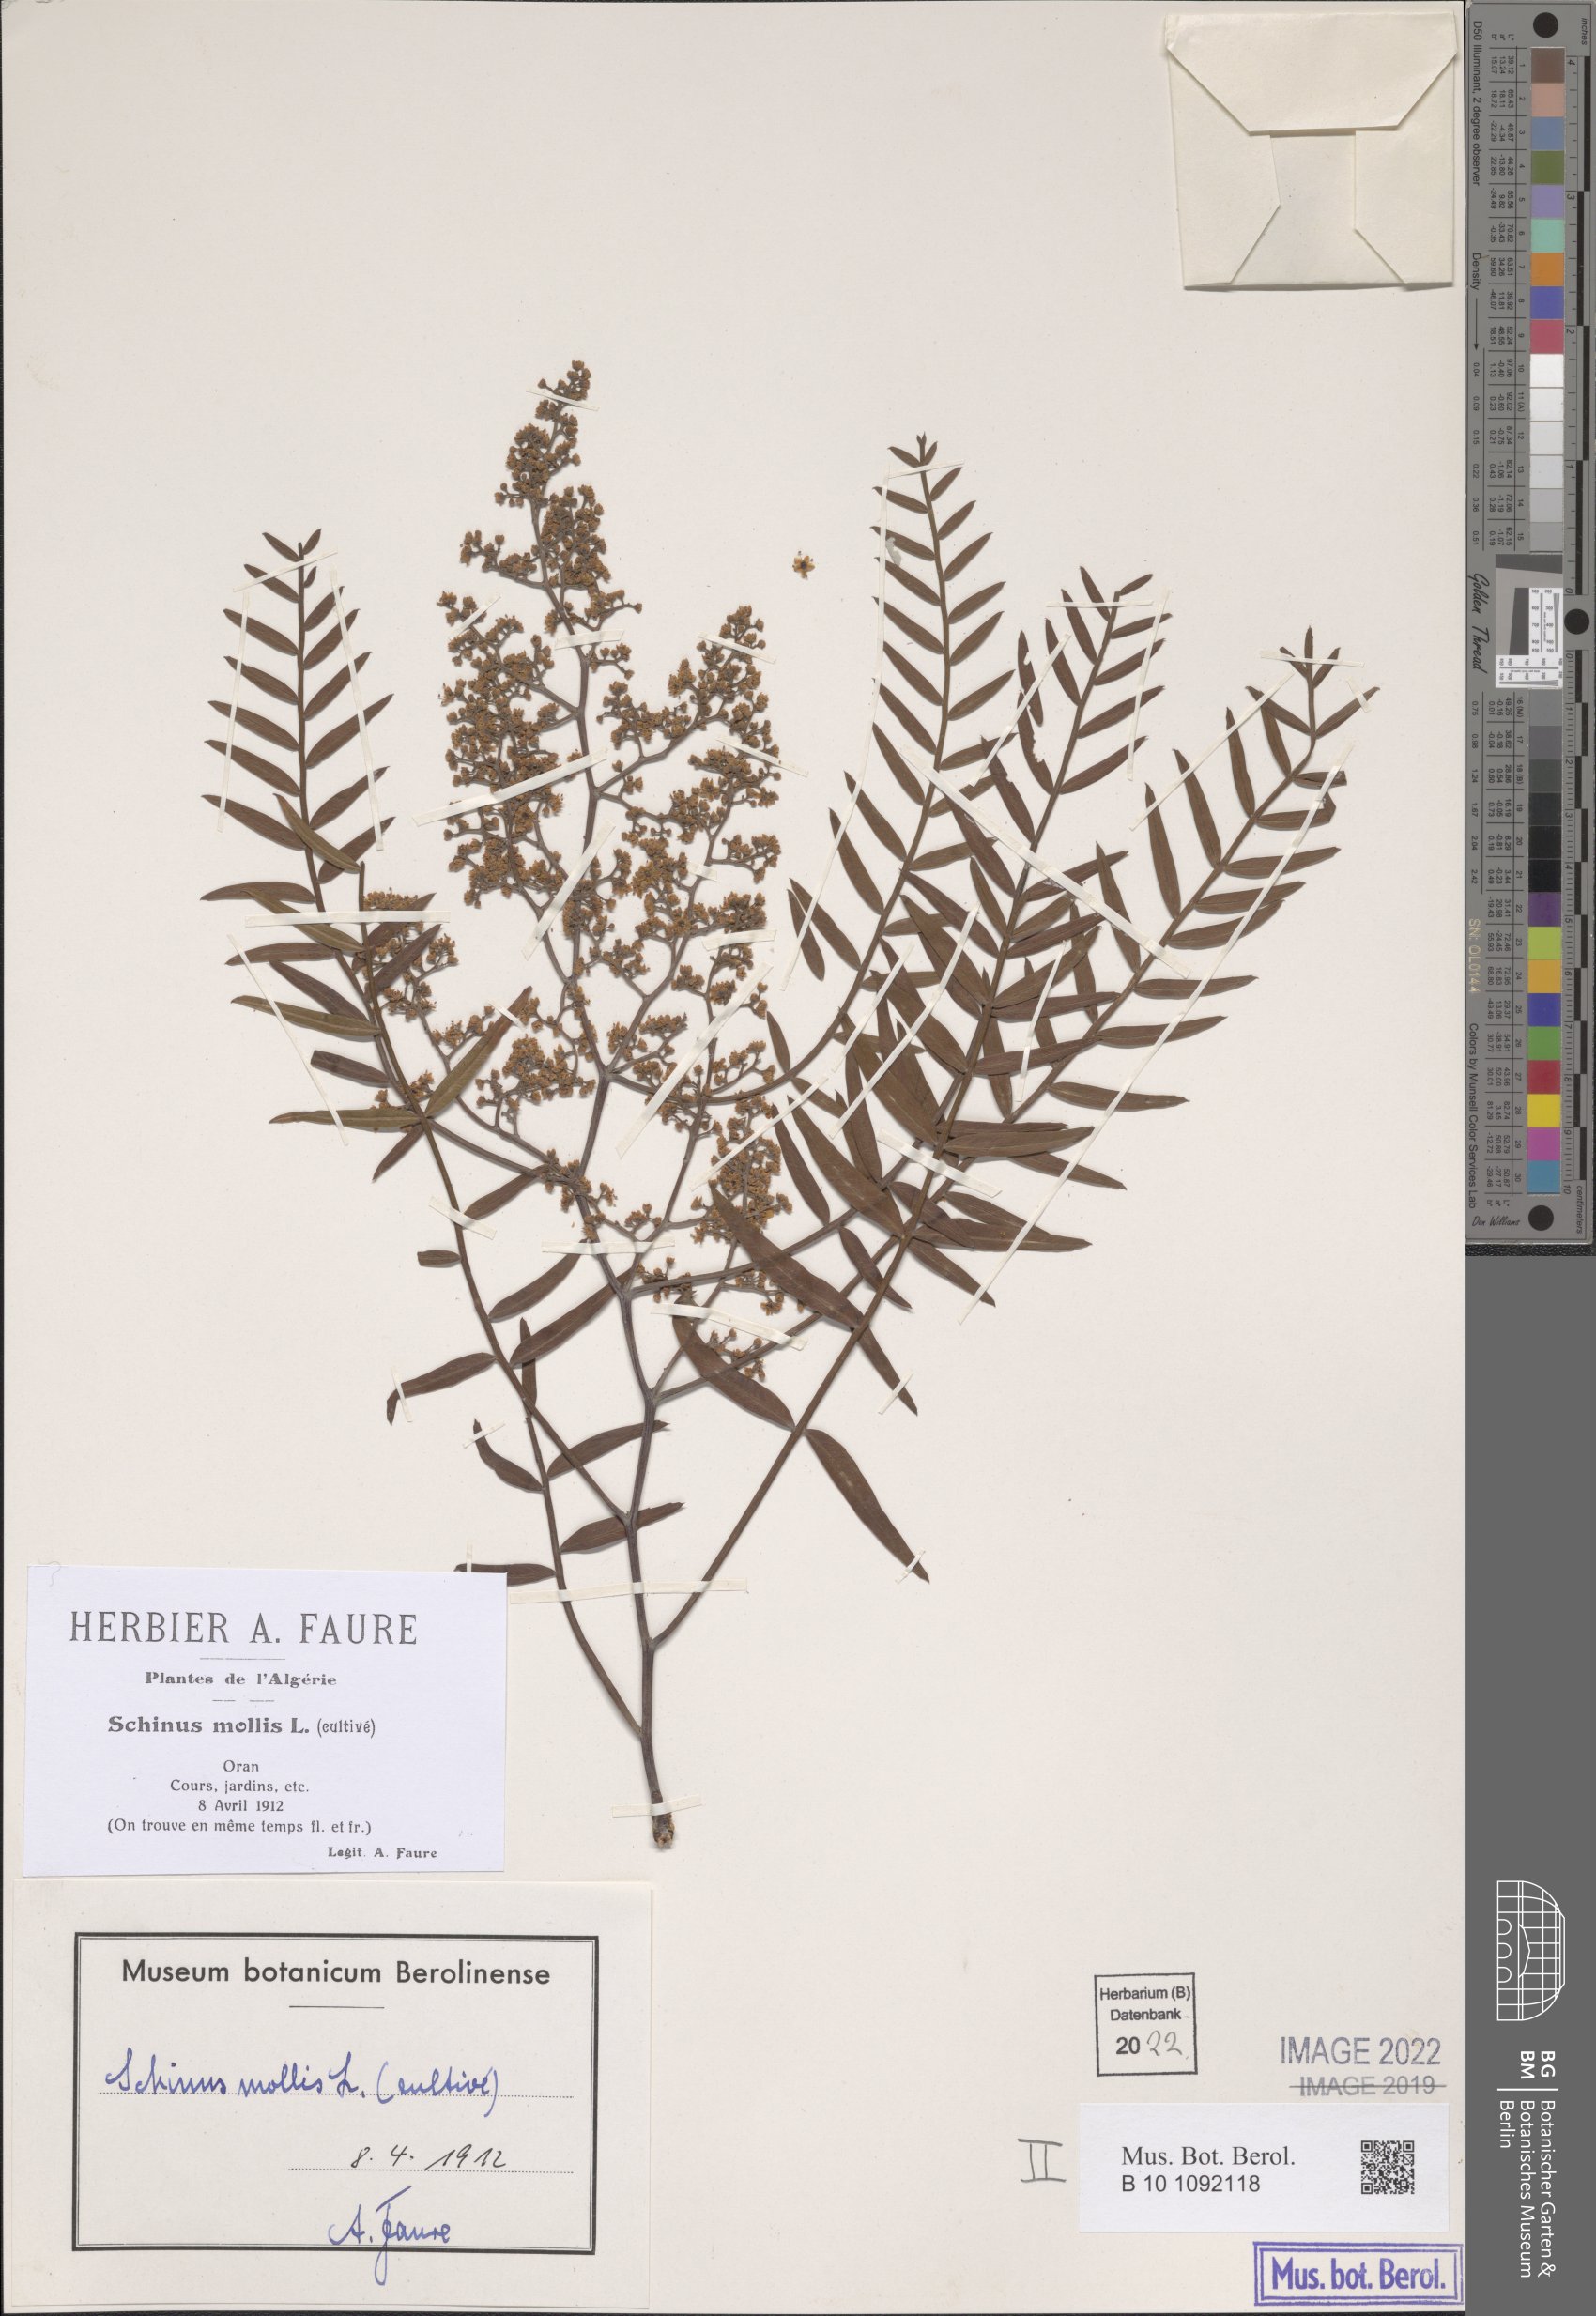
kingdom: Plantae
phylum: Tracheophyta
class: Magnoliopsida
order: Sapindales
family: Anacardiaceae
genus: Schinus
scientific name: Schinus molle
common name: Peruvian peppertree
